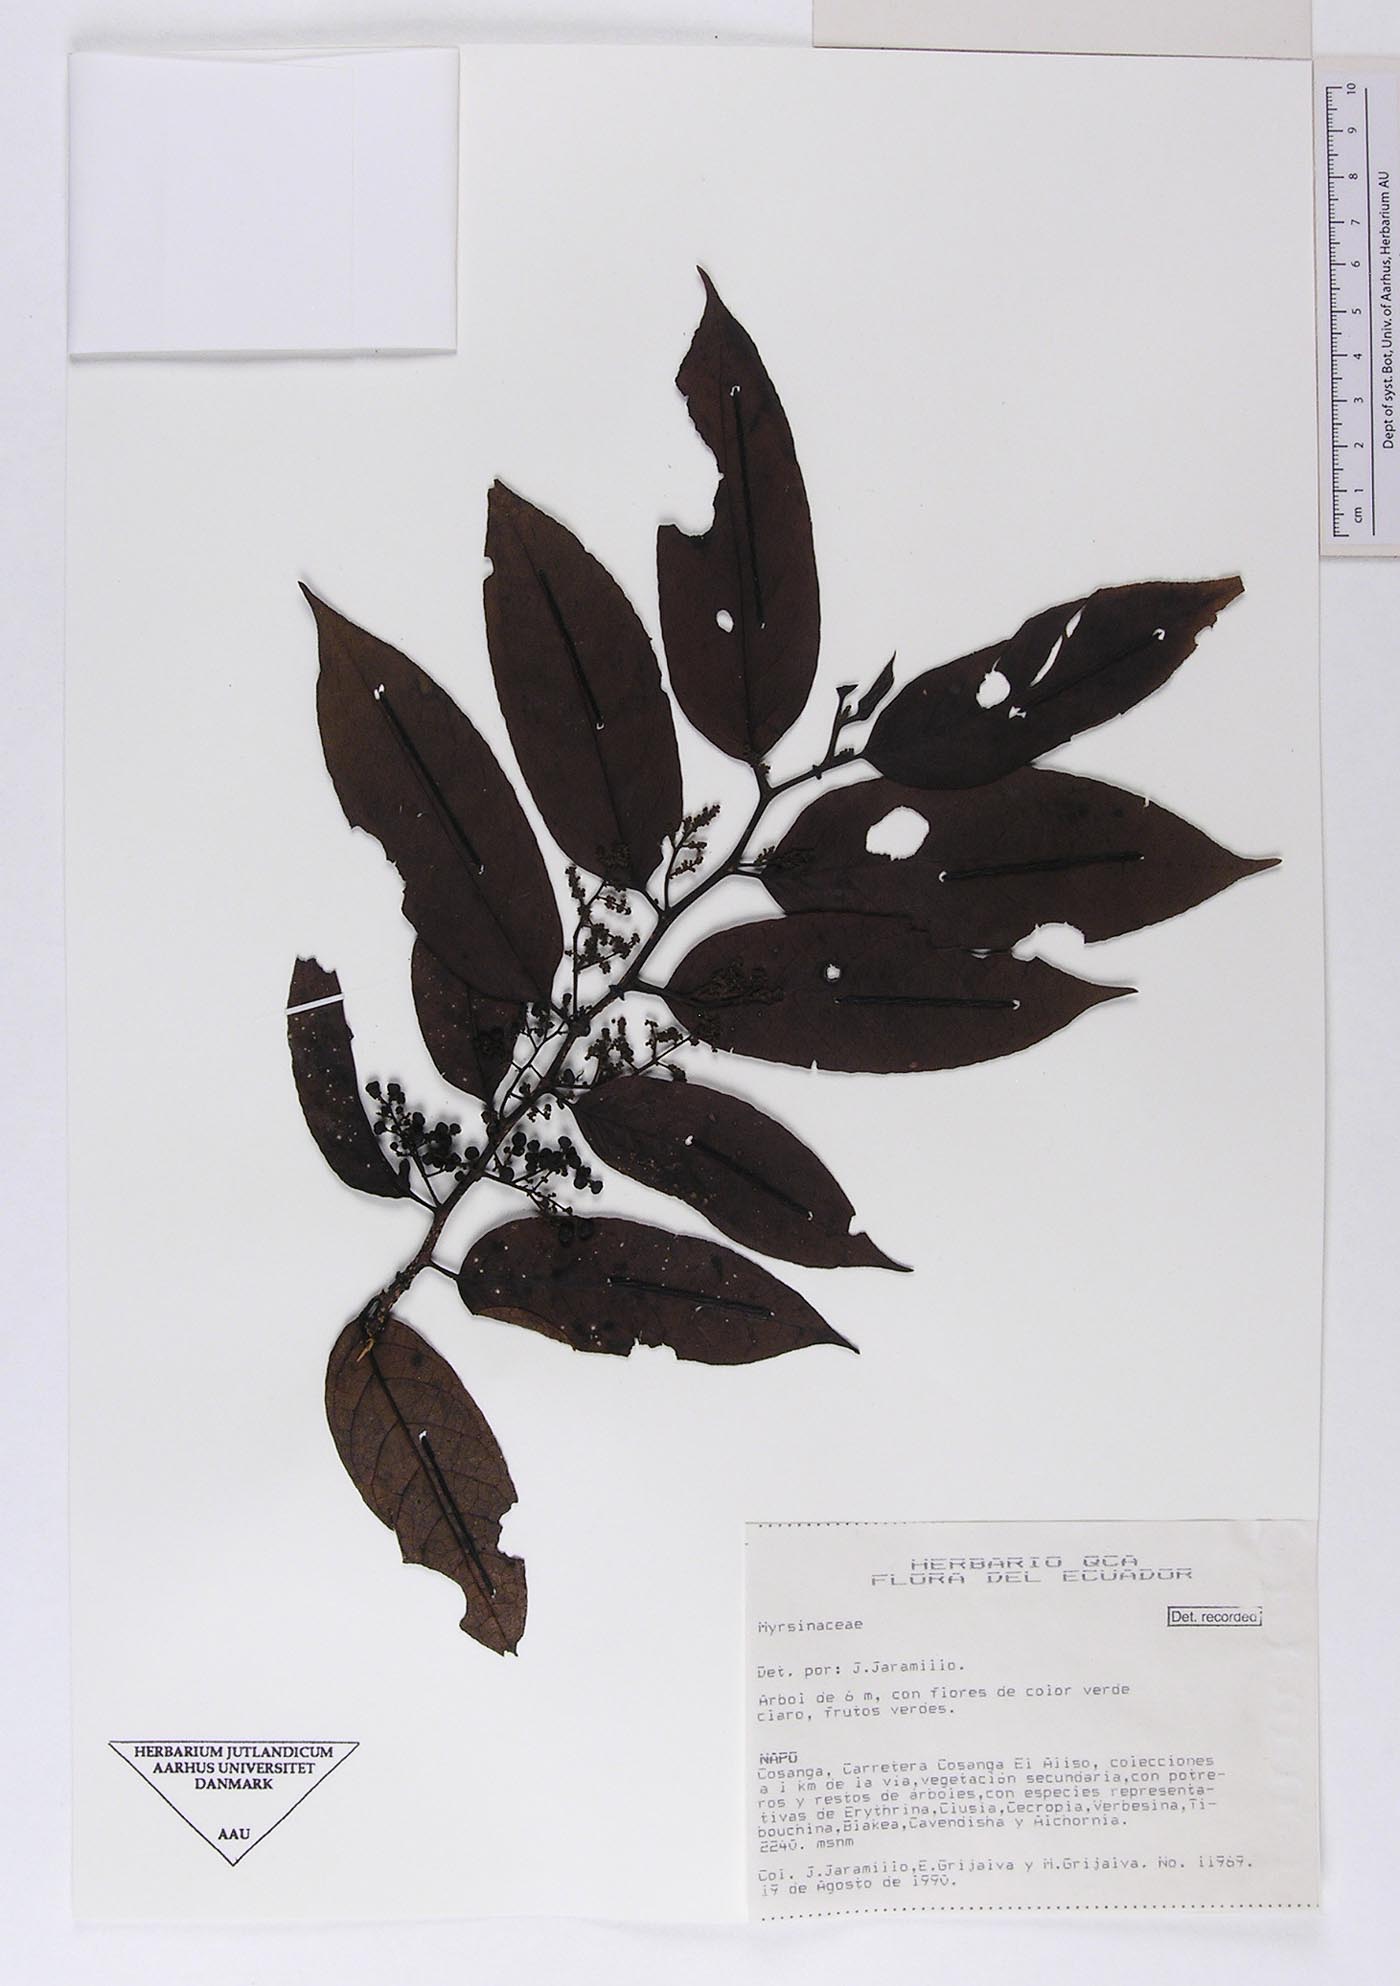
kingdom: Plantae
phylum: Tracheophyta
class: Magnoliopsida
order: Ericales
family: Primulaceae
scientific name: Primulaceae
